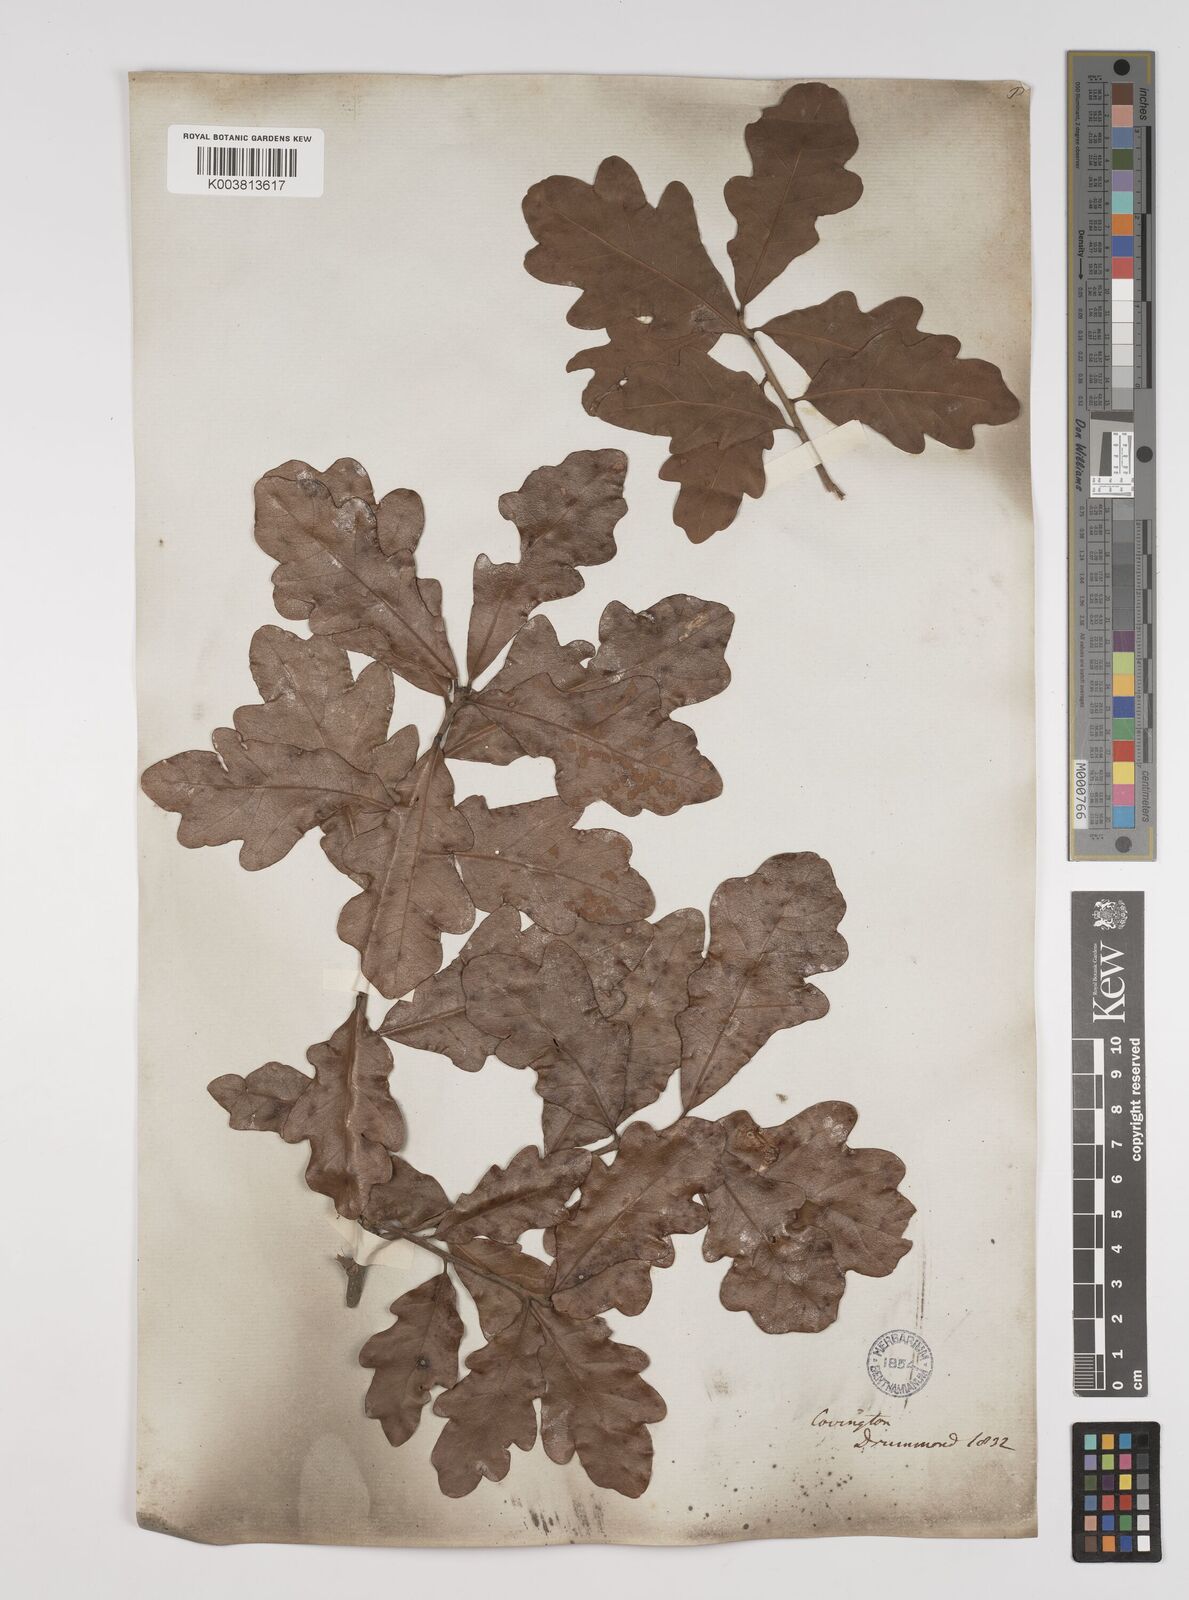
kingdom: Plantae
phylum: Tracheophyta
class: Magnoliopsida
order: Fagales
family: Fagaceae
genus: Quercus
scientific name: Quercus stellata
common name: Post oak
